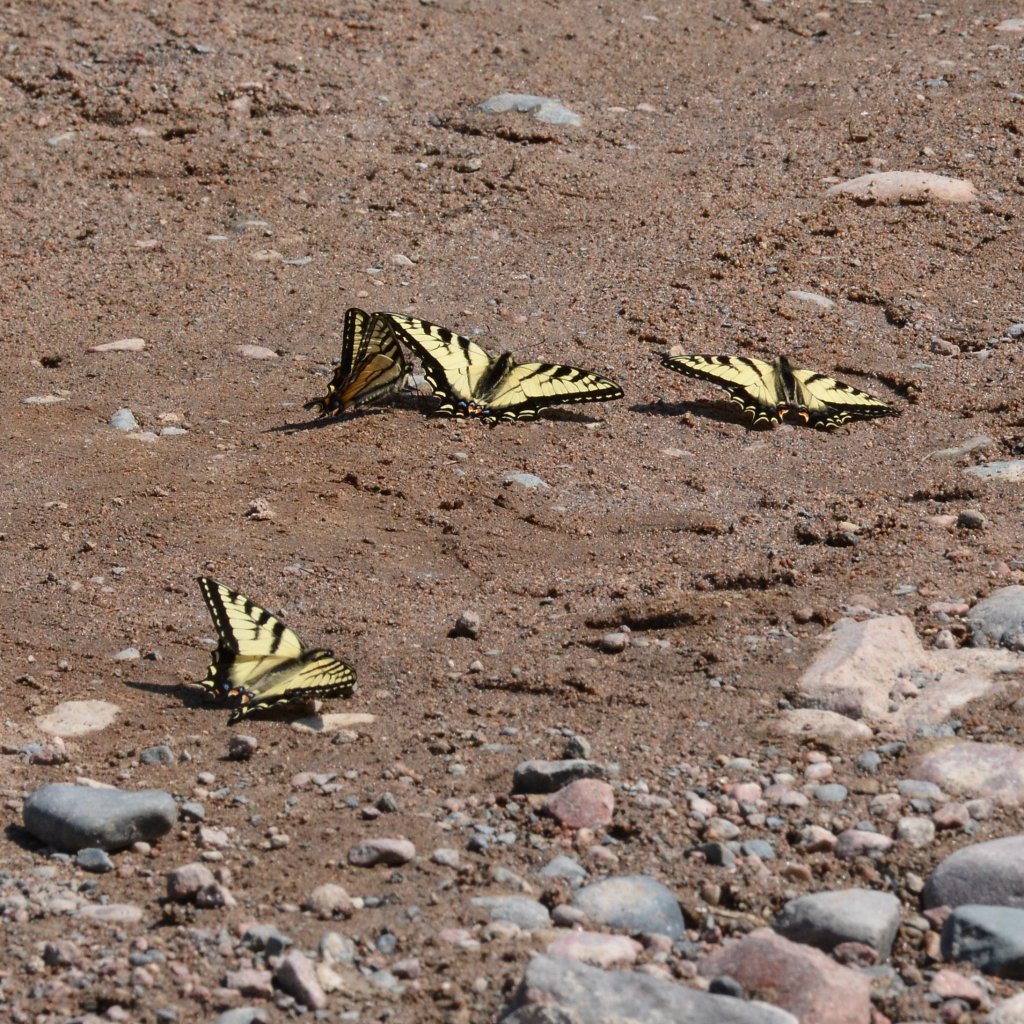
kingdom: Animalia
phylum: Arthropoda
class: Insecta
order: Lepidoptera
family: Papilionidae
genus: Pterourus
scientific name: Pterourus canadensis
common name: Canadian Tiger Swallowtail
